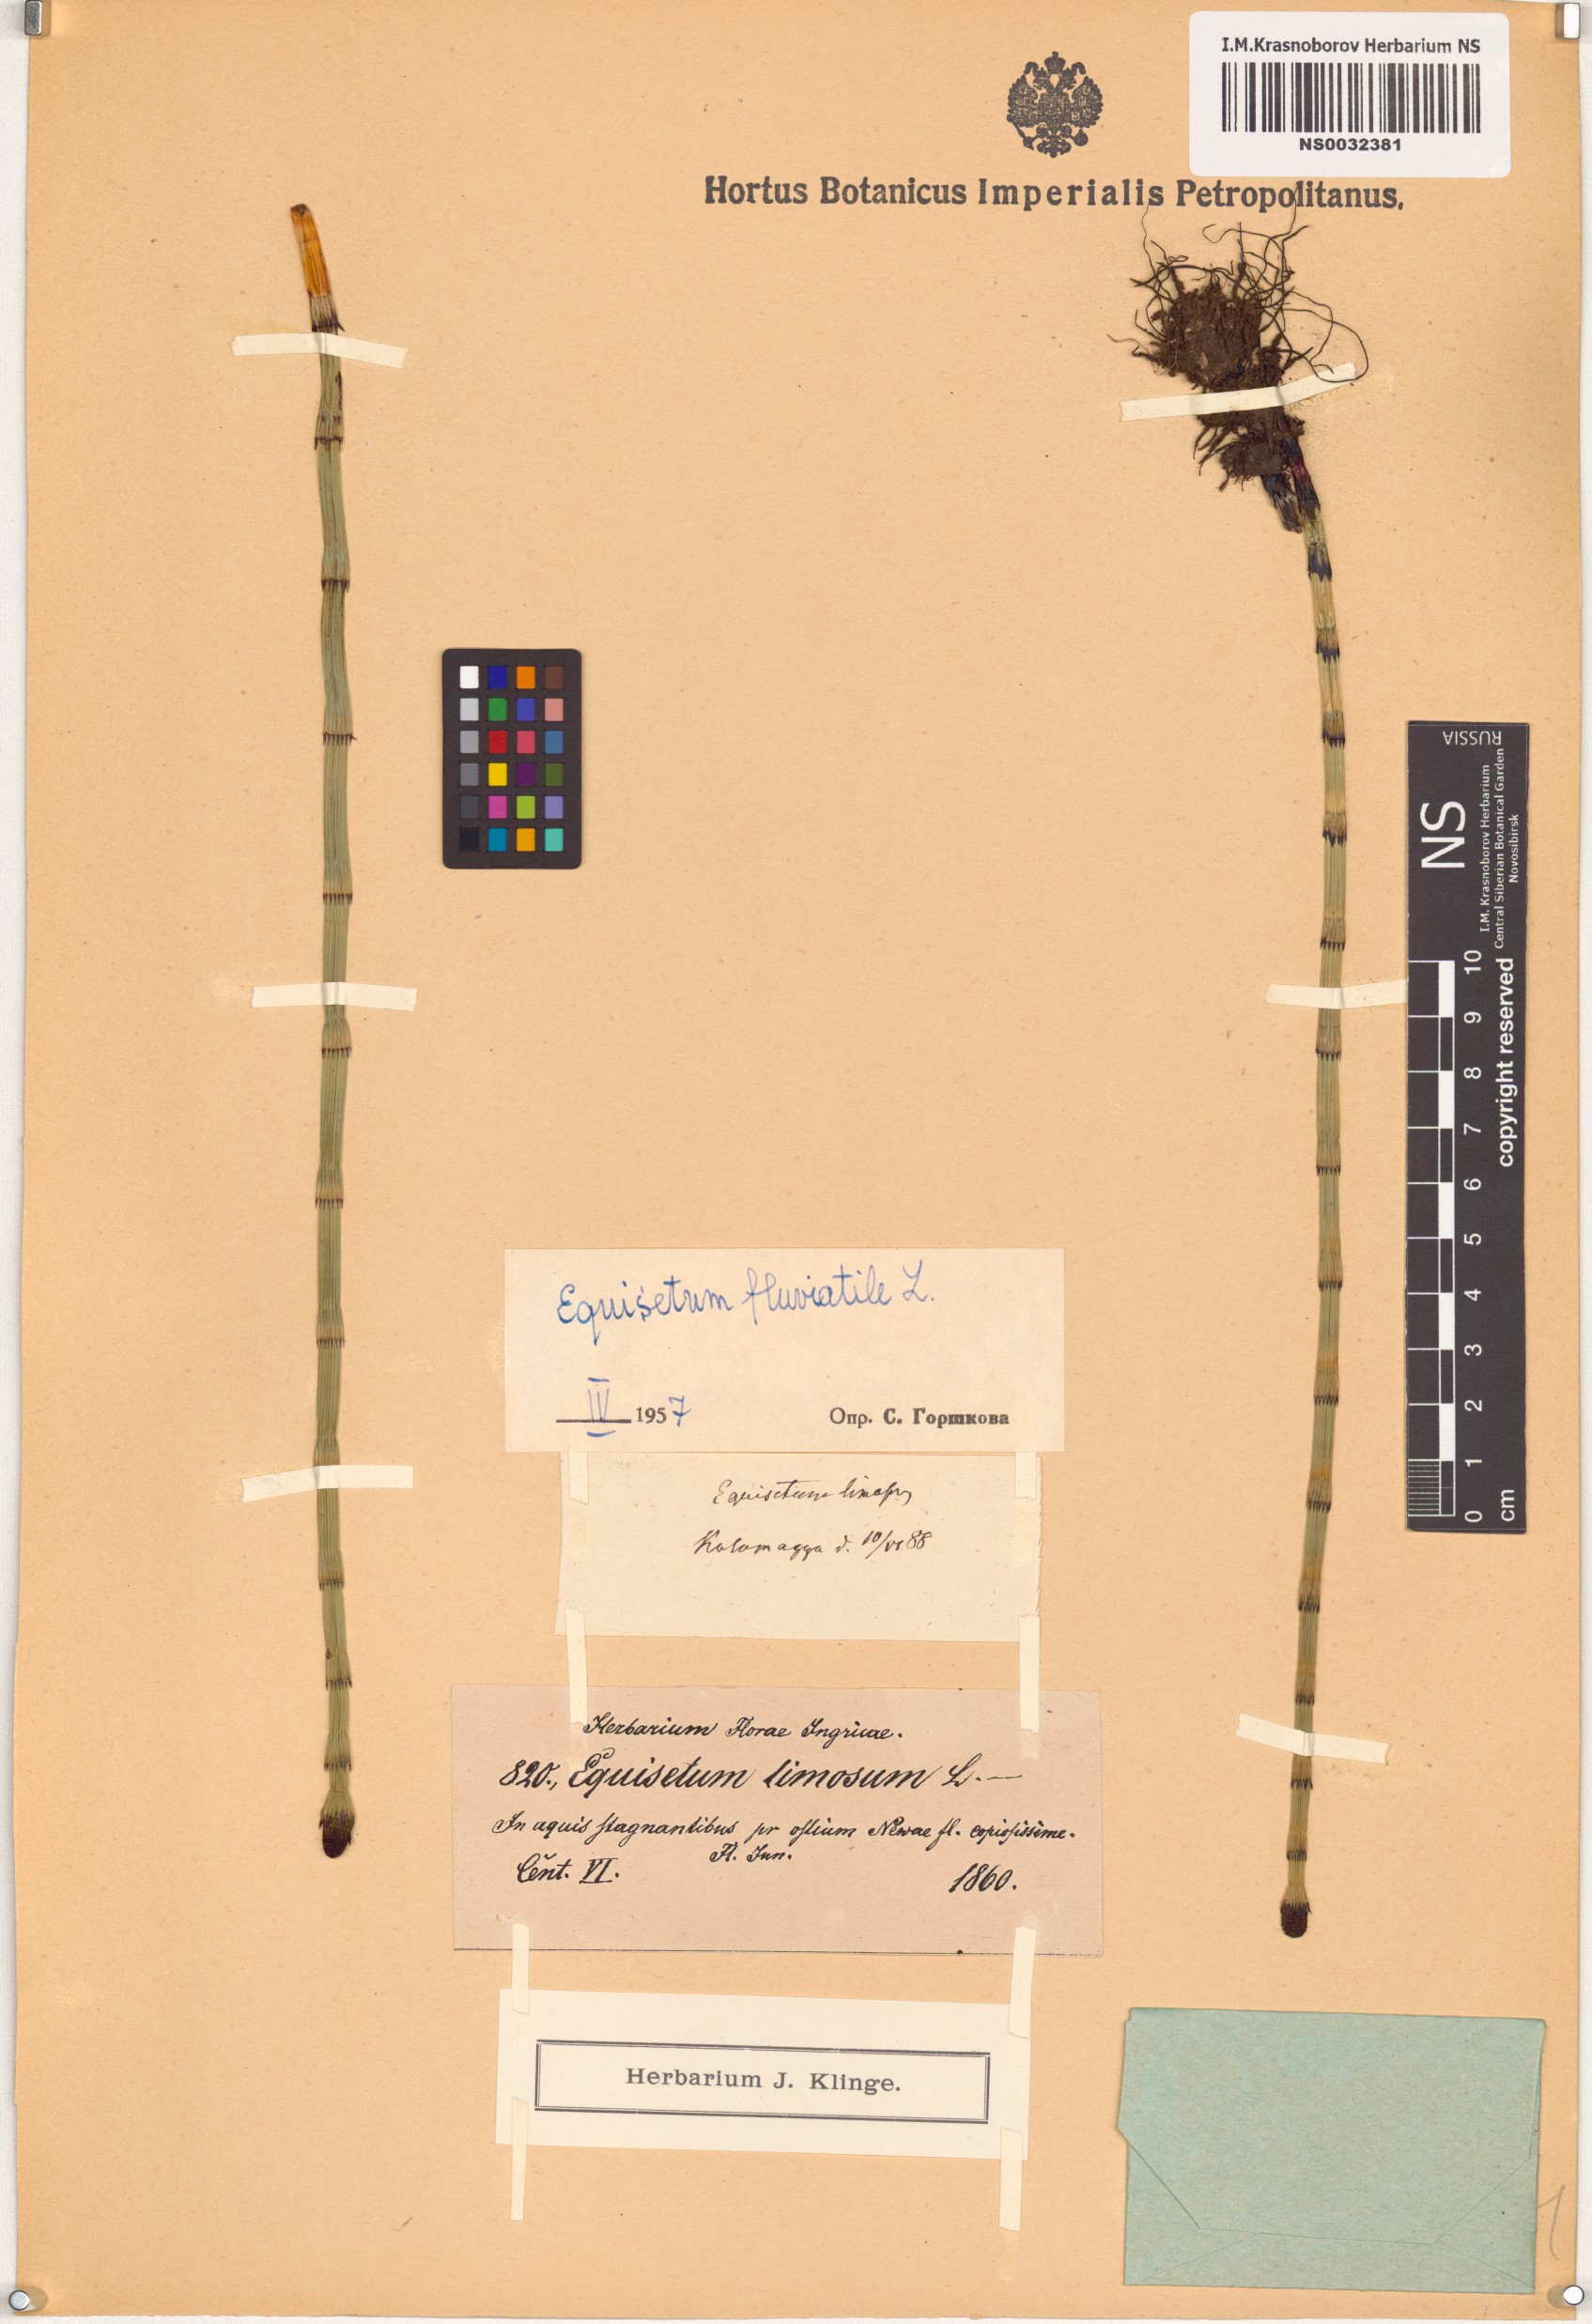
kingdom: Plantae
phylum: Tracheophyta
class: Polypodiopsida
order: Equisetales
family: Equisetaceae
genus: Equisetum
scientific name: Equisetum fluviatile
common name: Water horsetail
